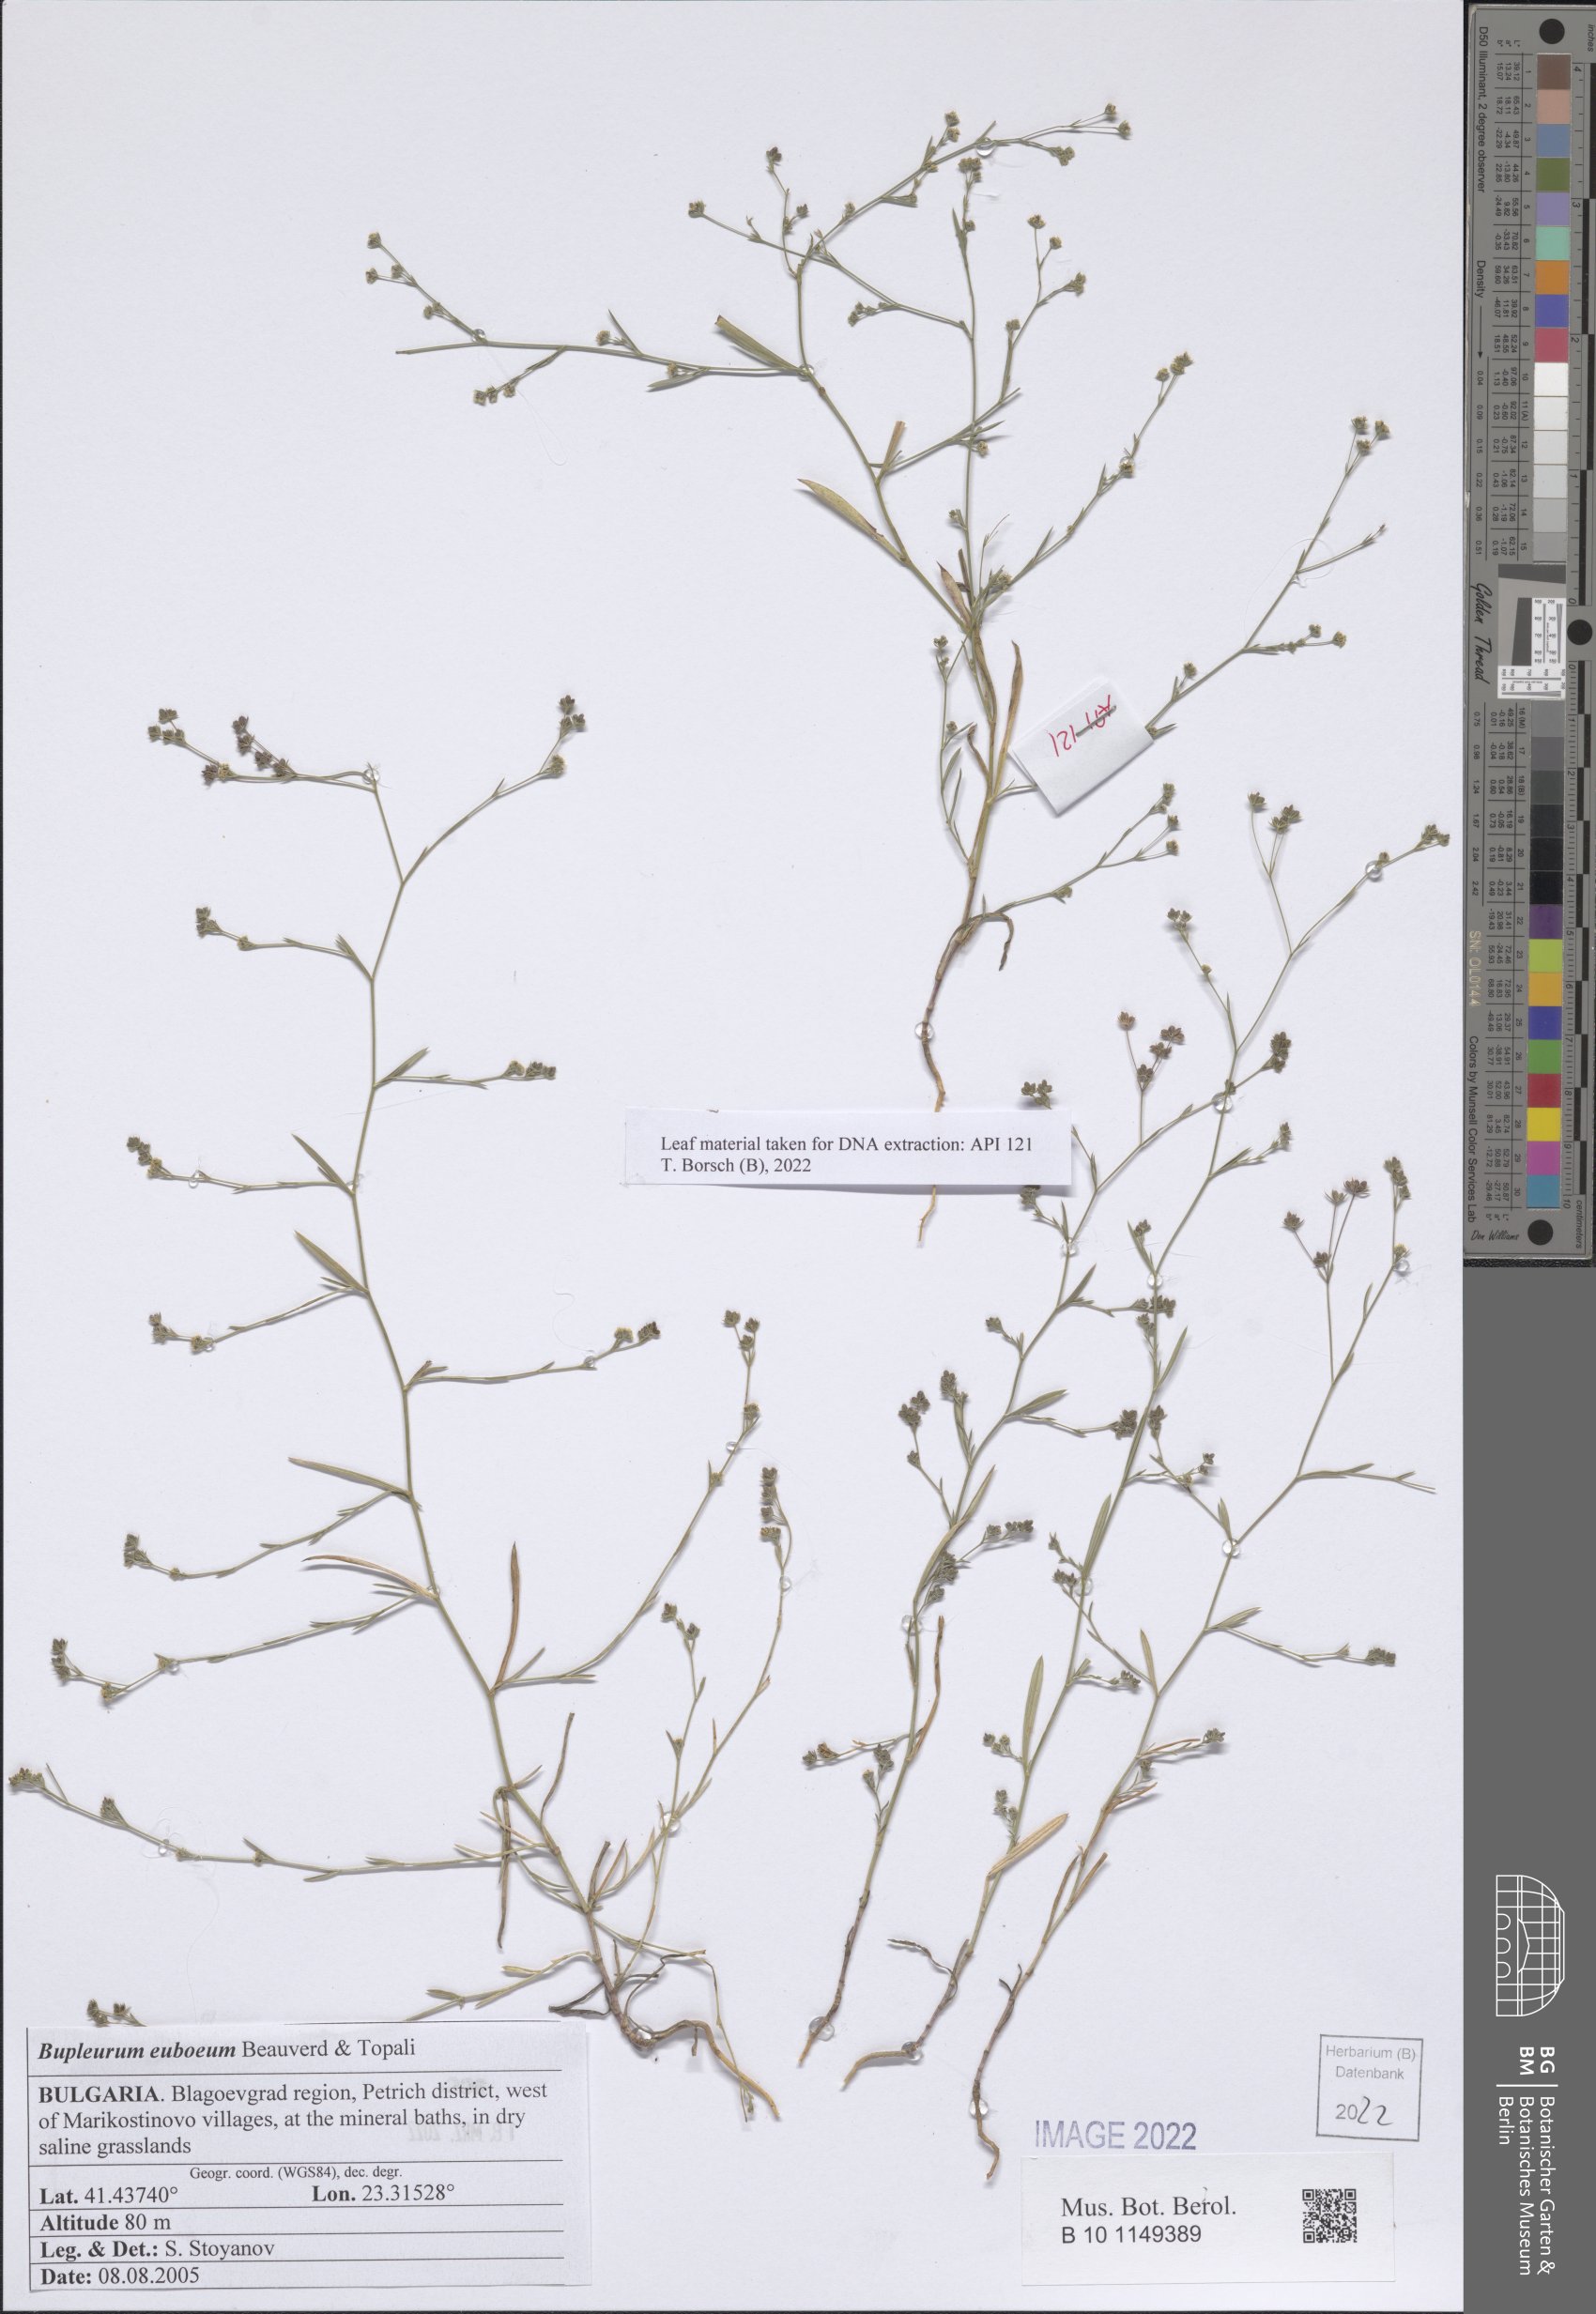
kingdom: Plantae
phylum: Tracheophyta
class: Magnoliopsida
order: Apiales
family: Apiaceae
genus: Bupleurum
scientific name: Bupleurum euboeum
